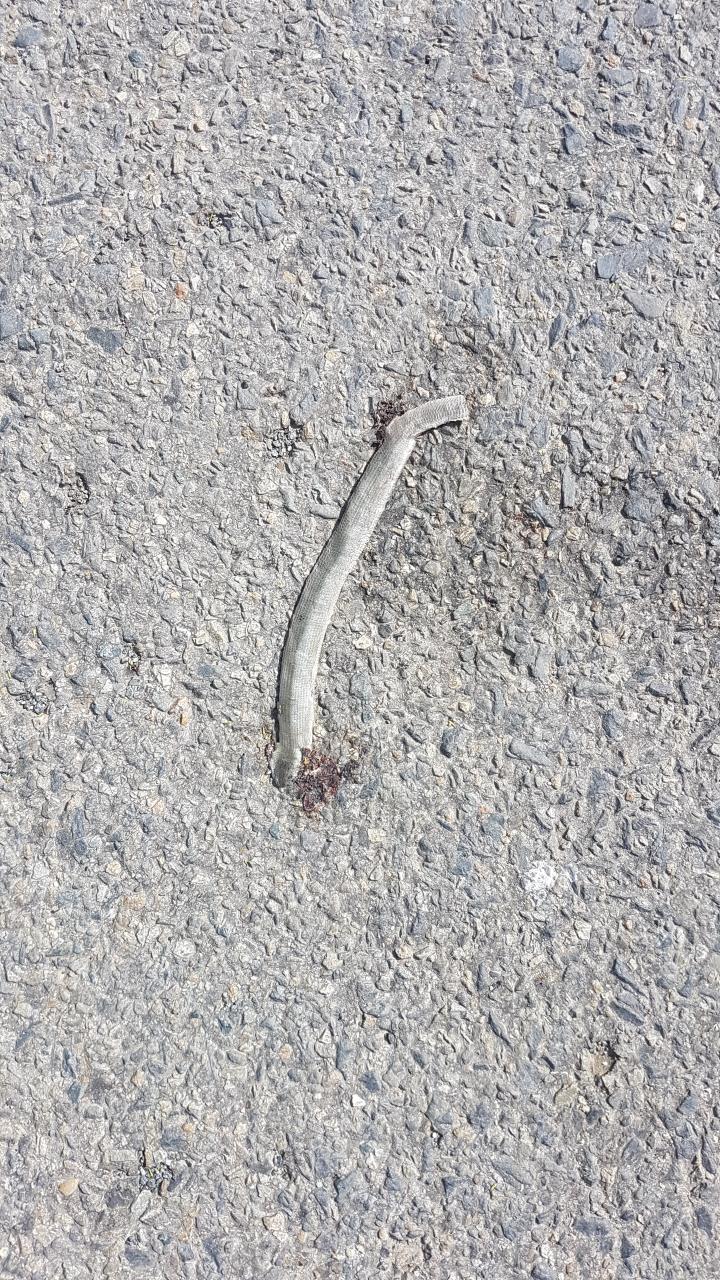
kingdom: Animalia
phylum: Chordata
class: Squamata
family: Anguidae
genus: Anguis
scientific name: Anguis fragilis
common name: Slow worm
